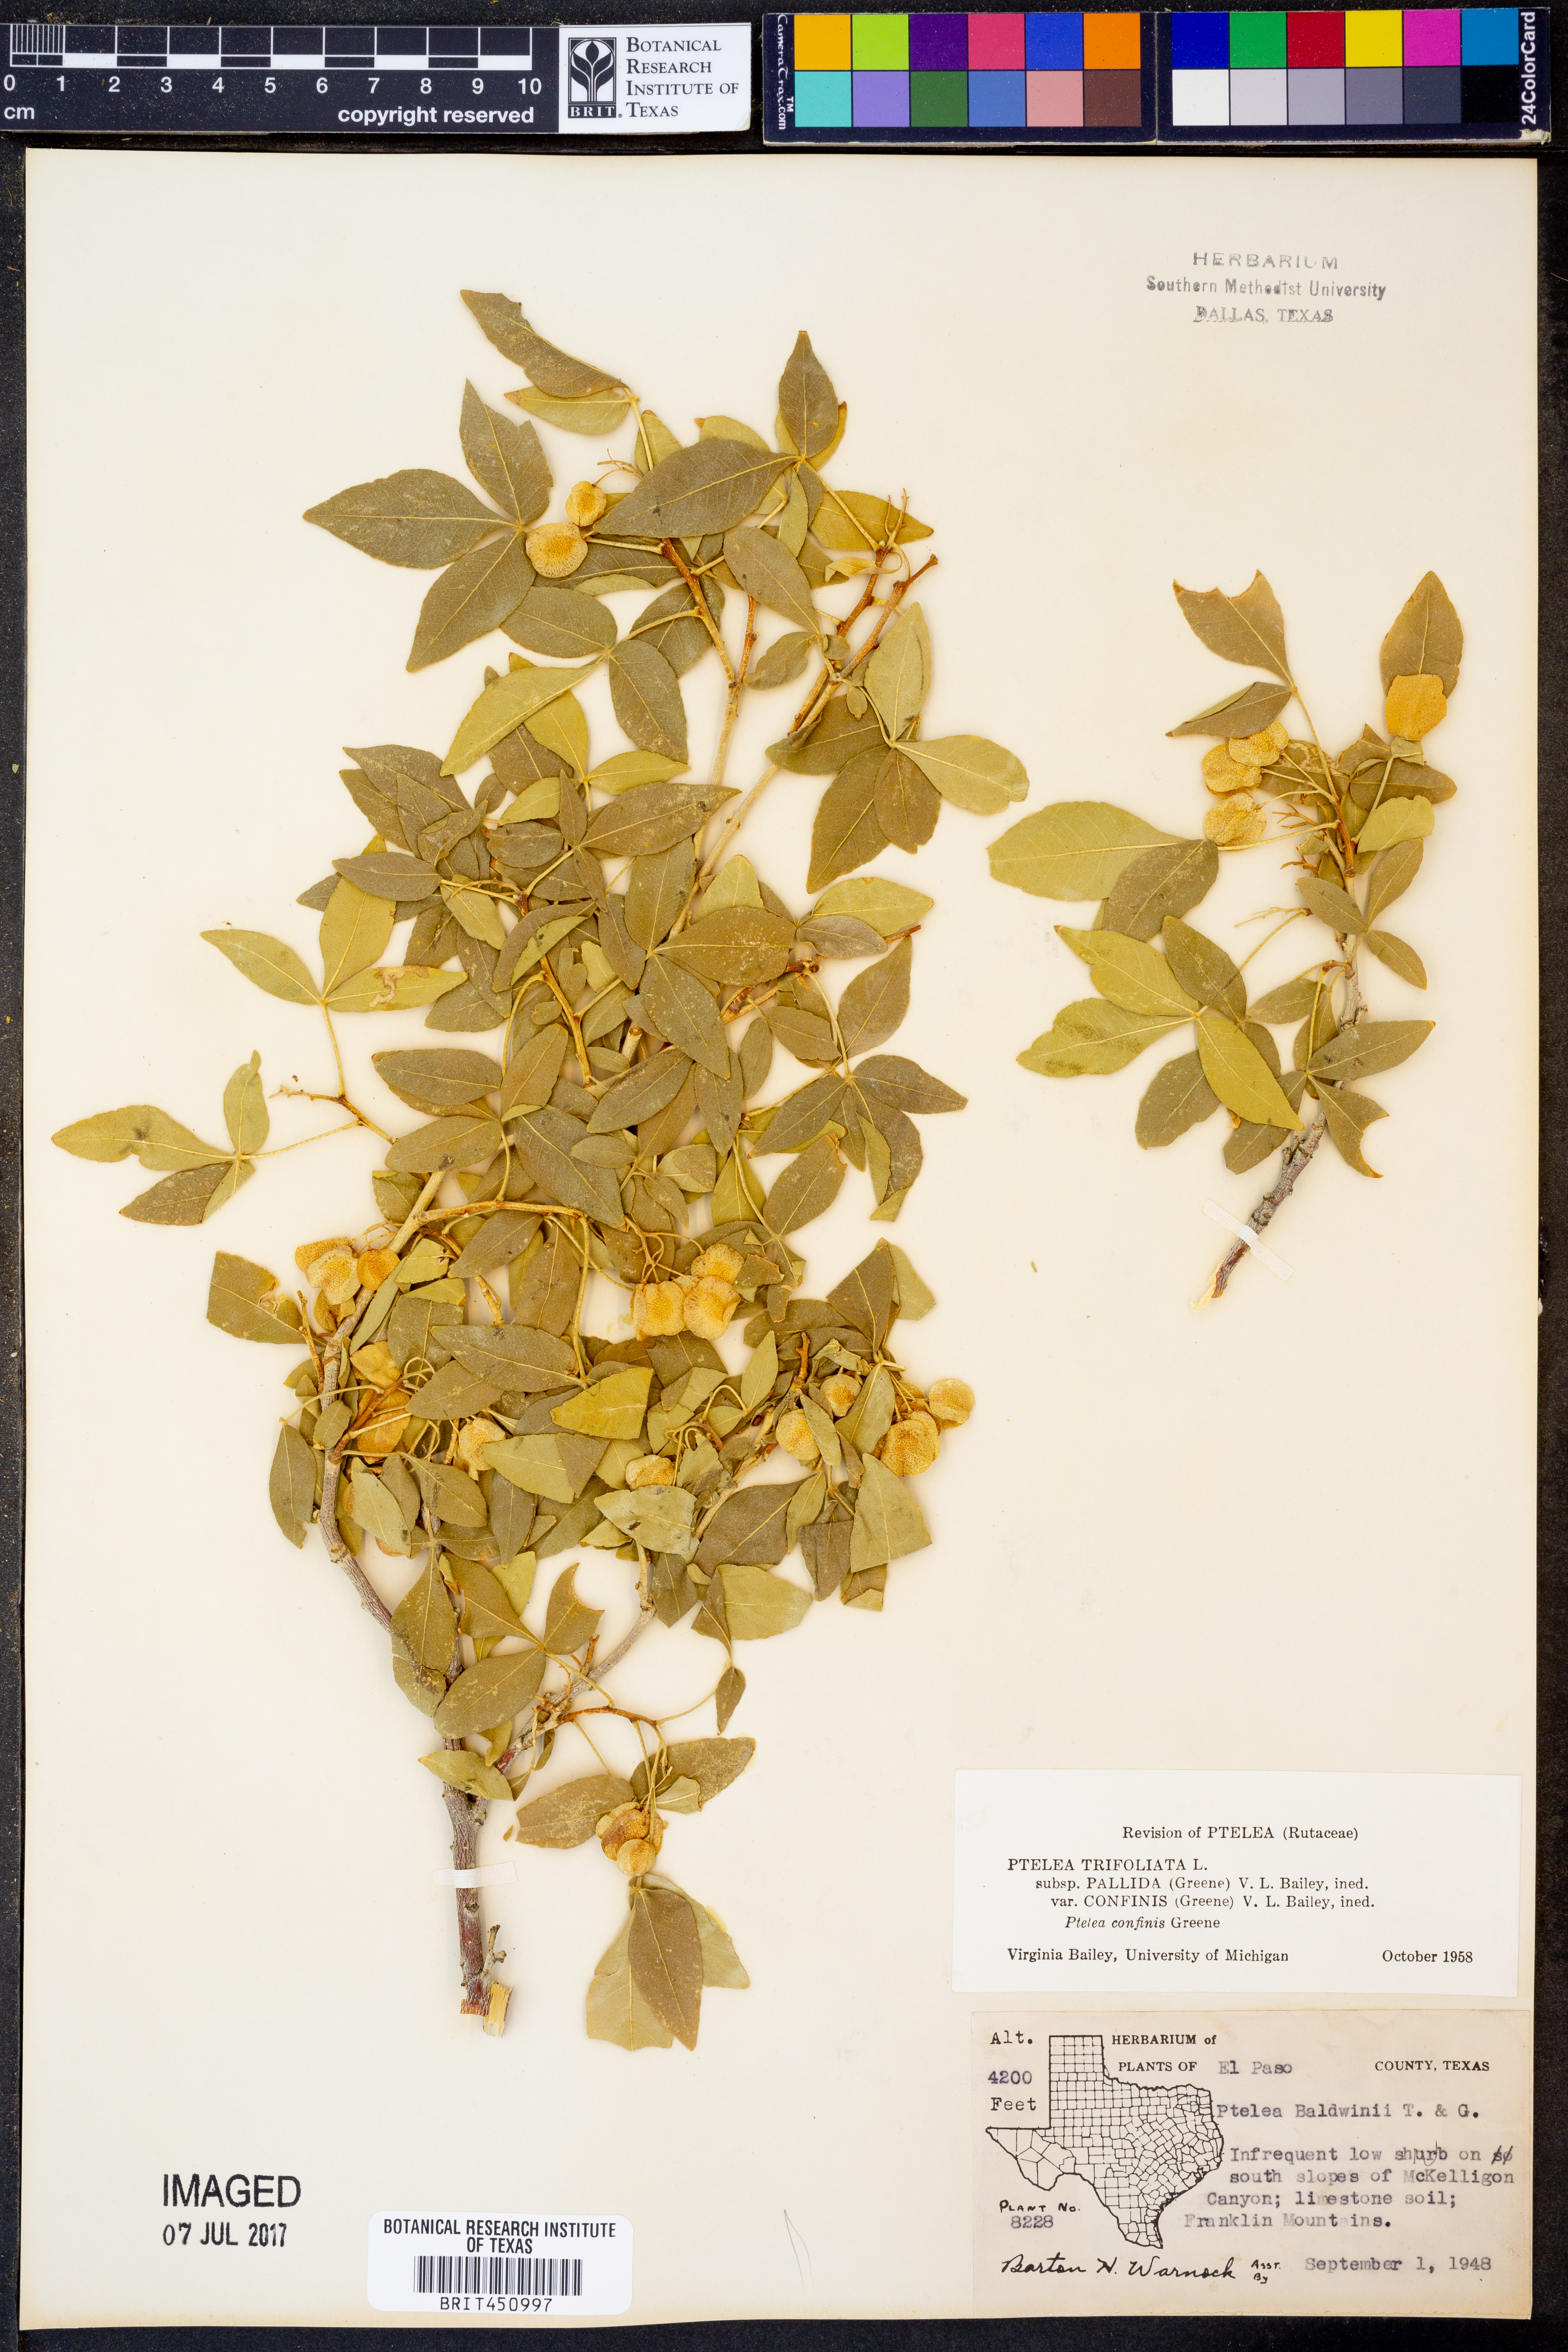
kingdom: Plantae
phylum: Tracheophyta
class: Magnoliopsida
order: Sapindales
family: Rutaceae
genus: Ptelea
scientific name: Ptelea trifoliata
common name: Common hop-tree
